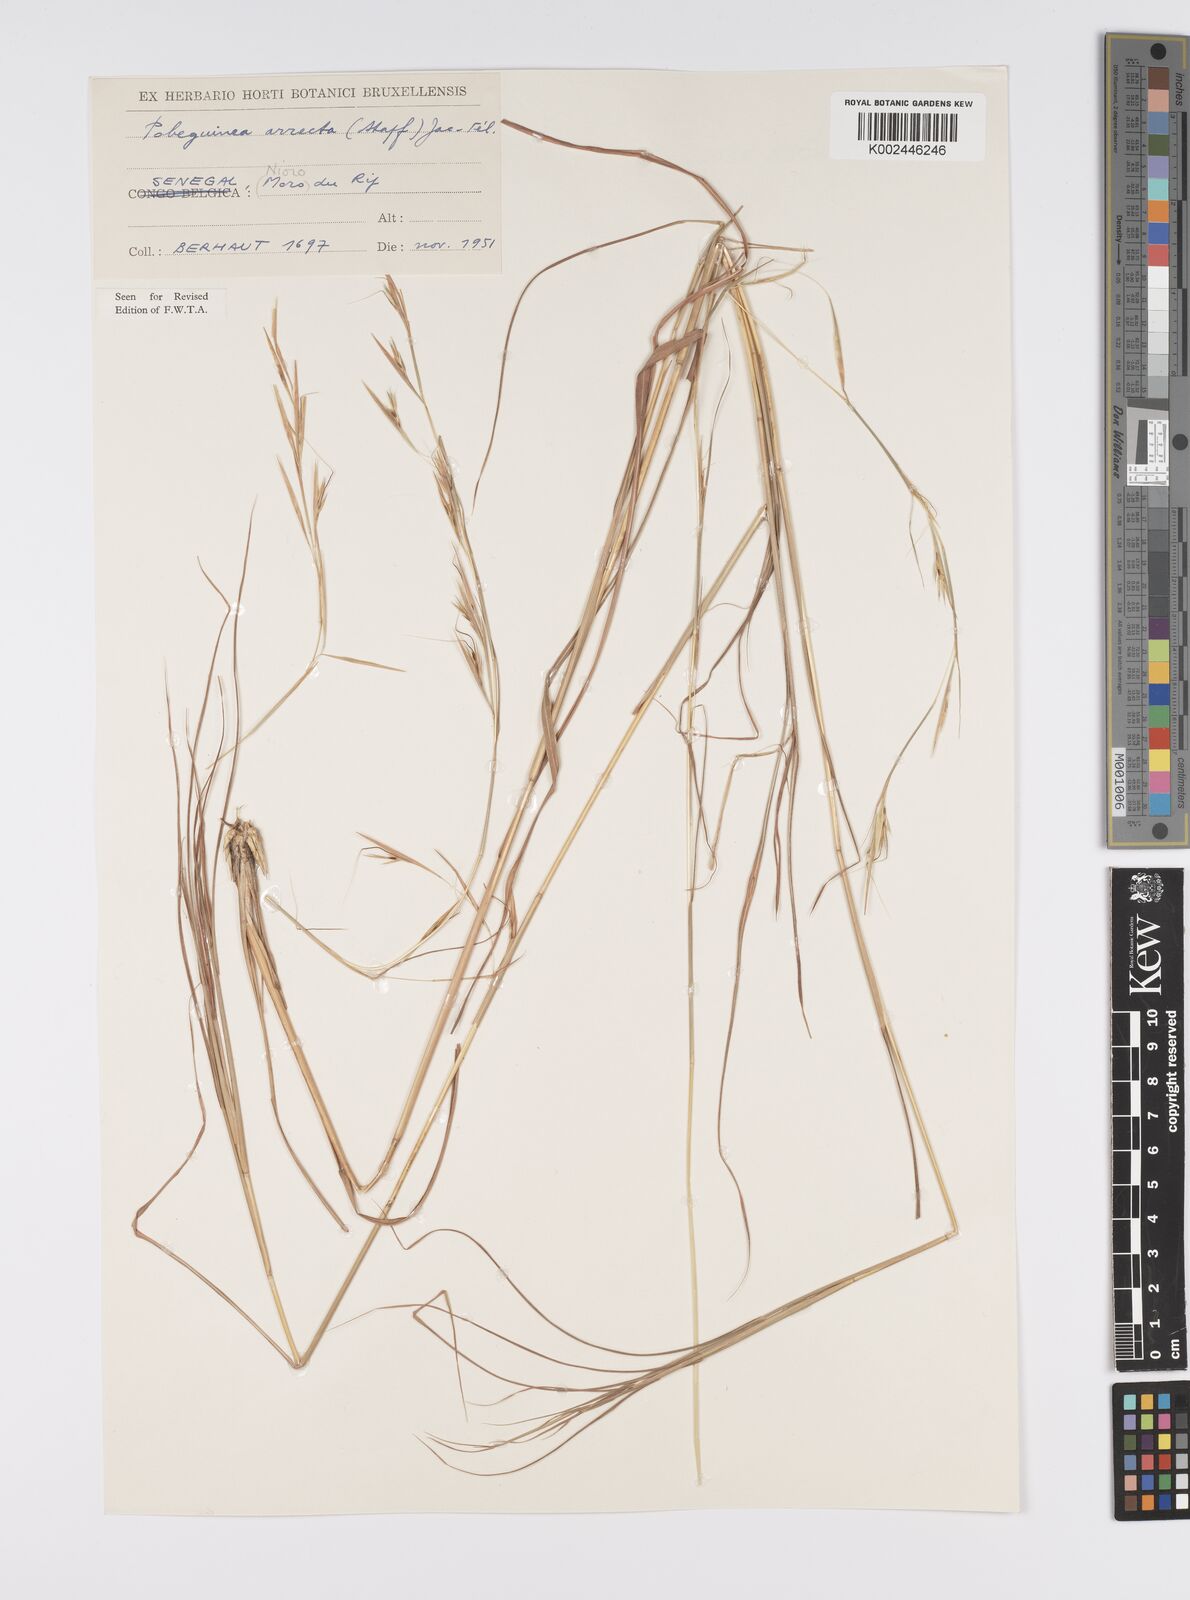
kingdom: Plantae
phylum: Tracheophyta
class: Liliopsida
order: Poales
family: Poaceae
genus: Anadelphia
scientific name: Anadelphia afzeliana
